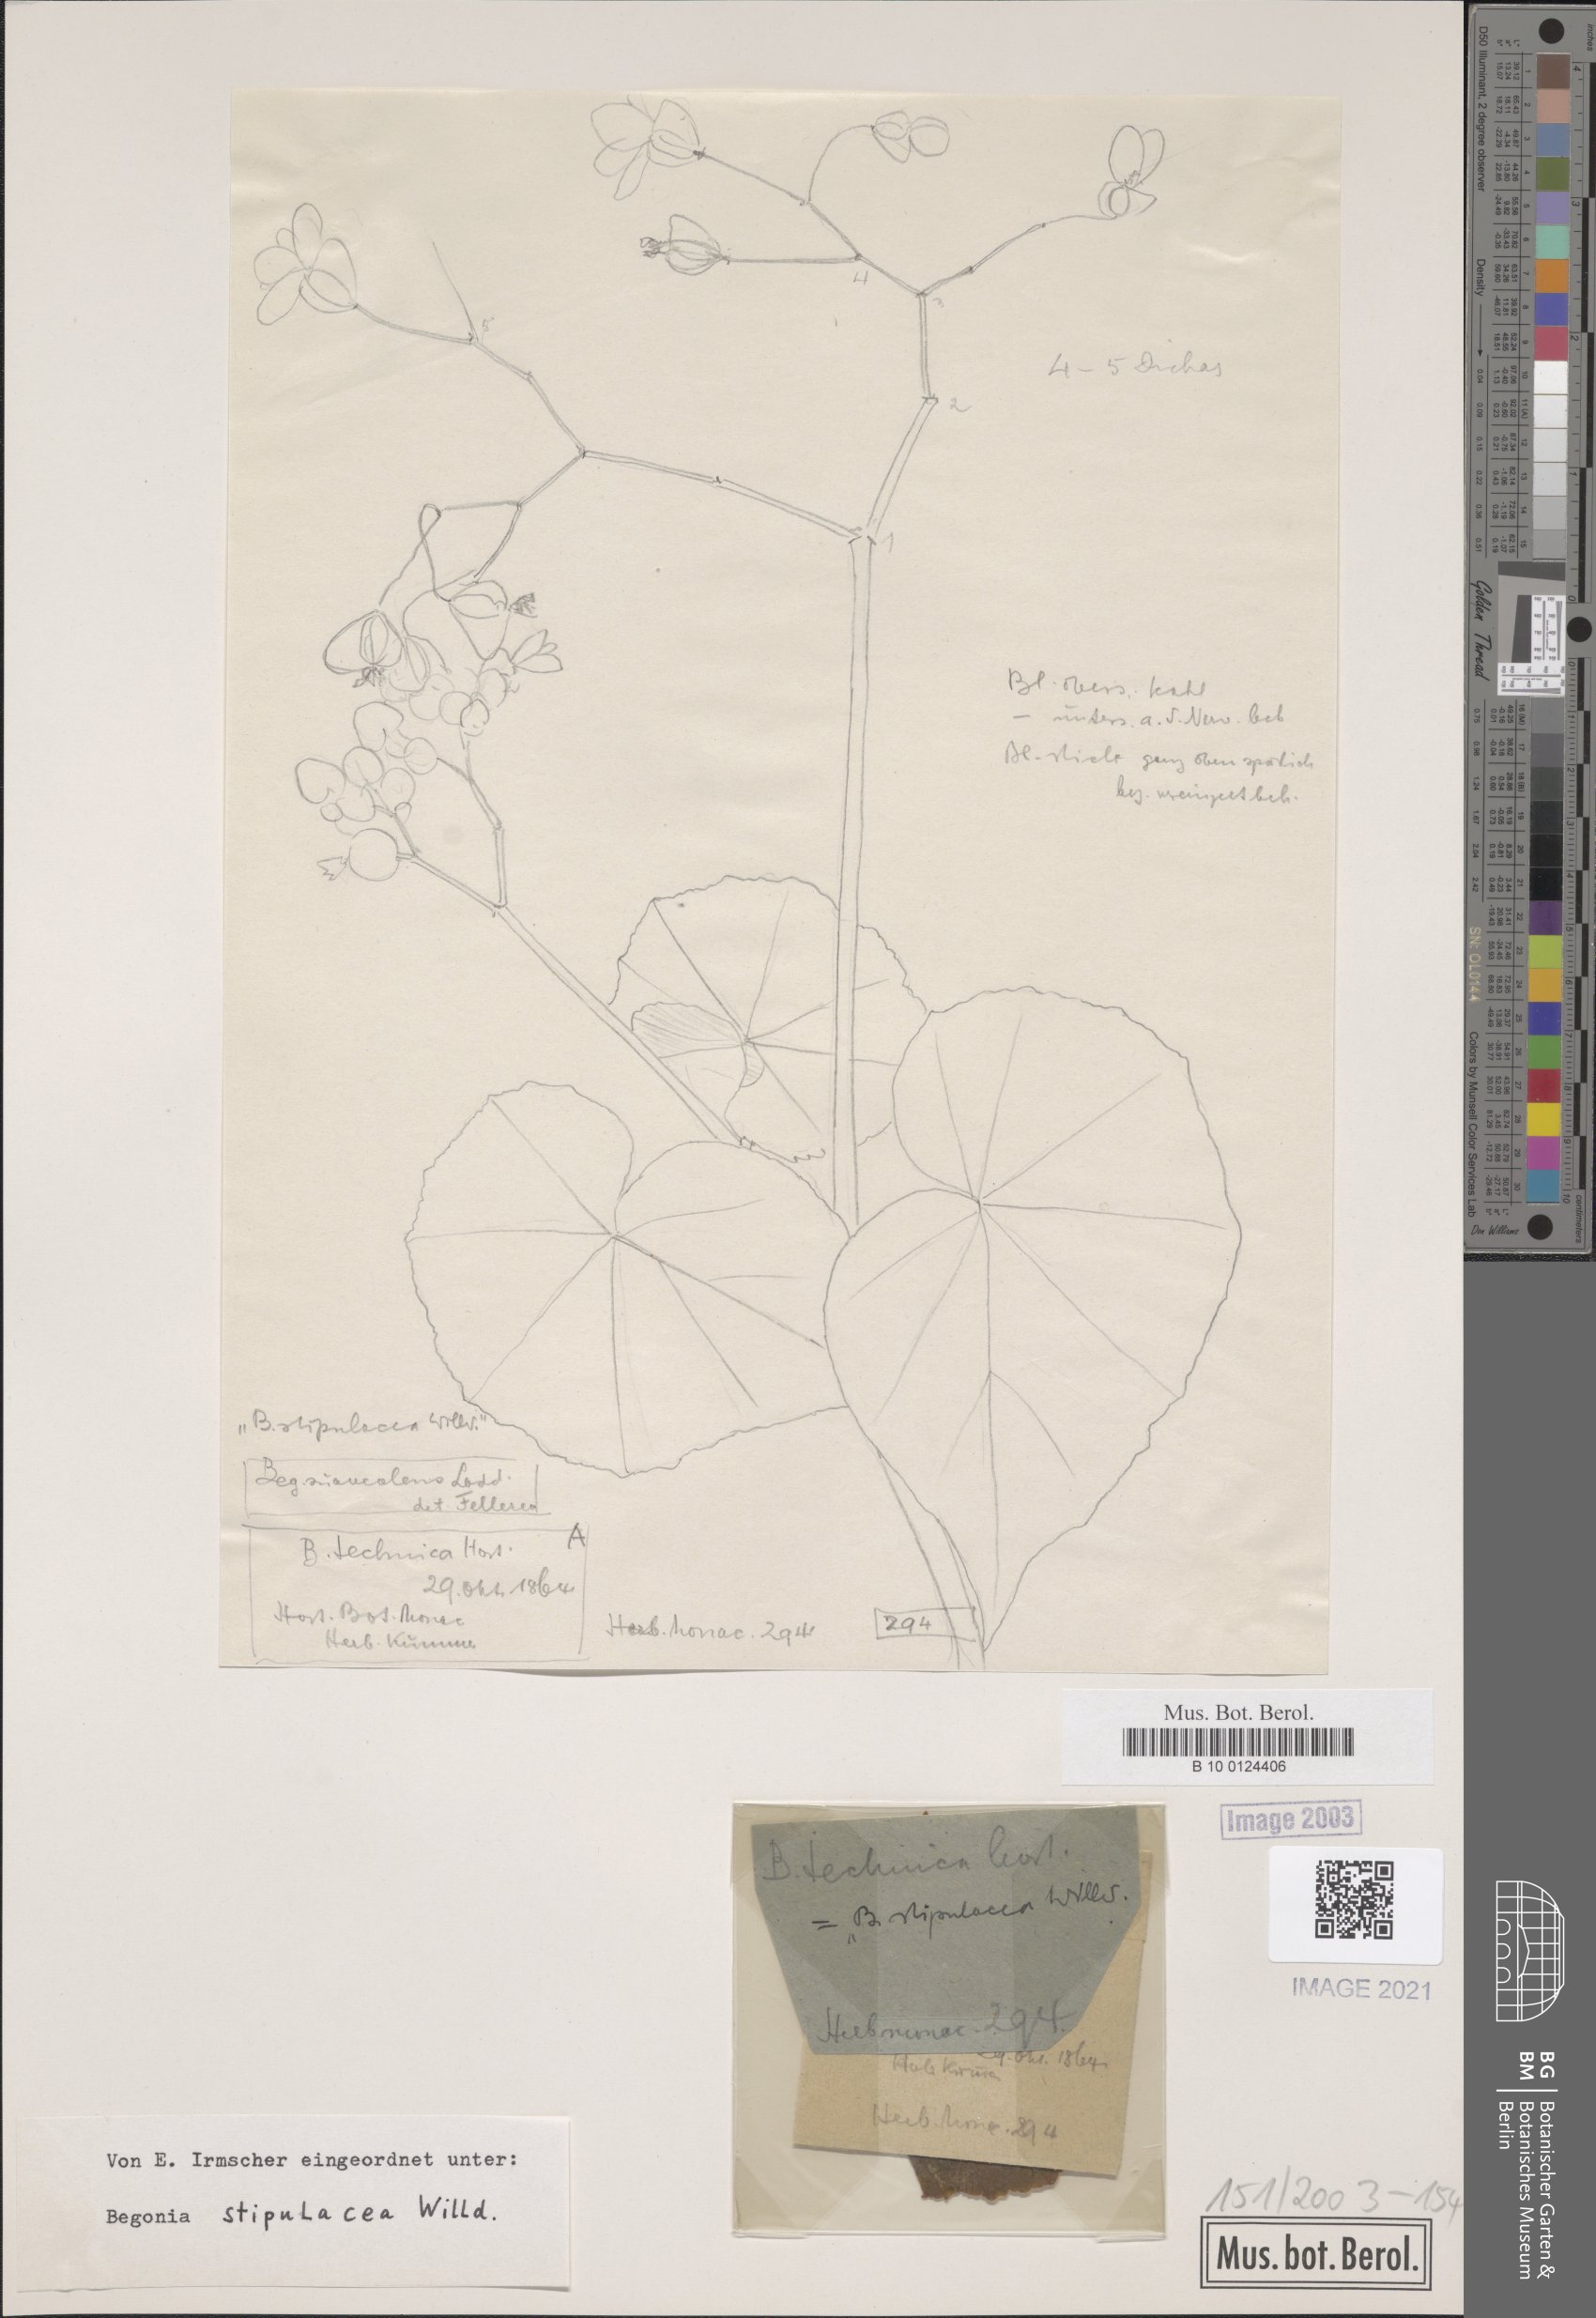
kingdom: Plantae
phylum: Tracheophyta
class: Magnoliopsida
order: Cucurbitales
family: Begoniaceae
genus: Begonia
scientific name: Begonia stipularis
